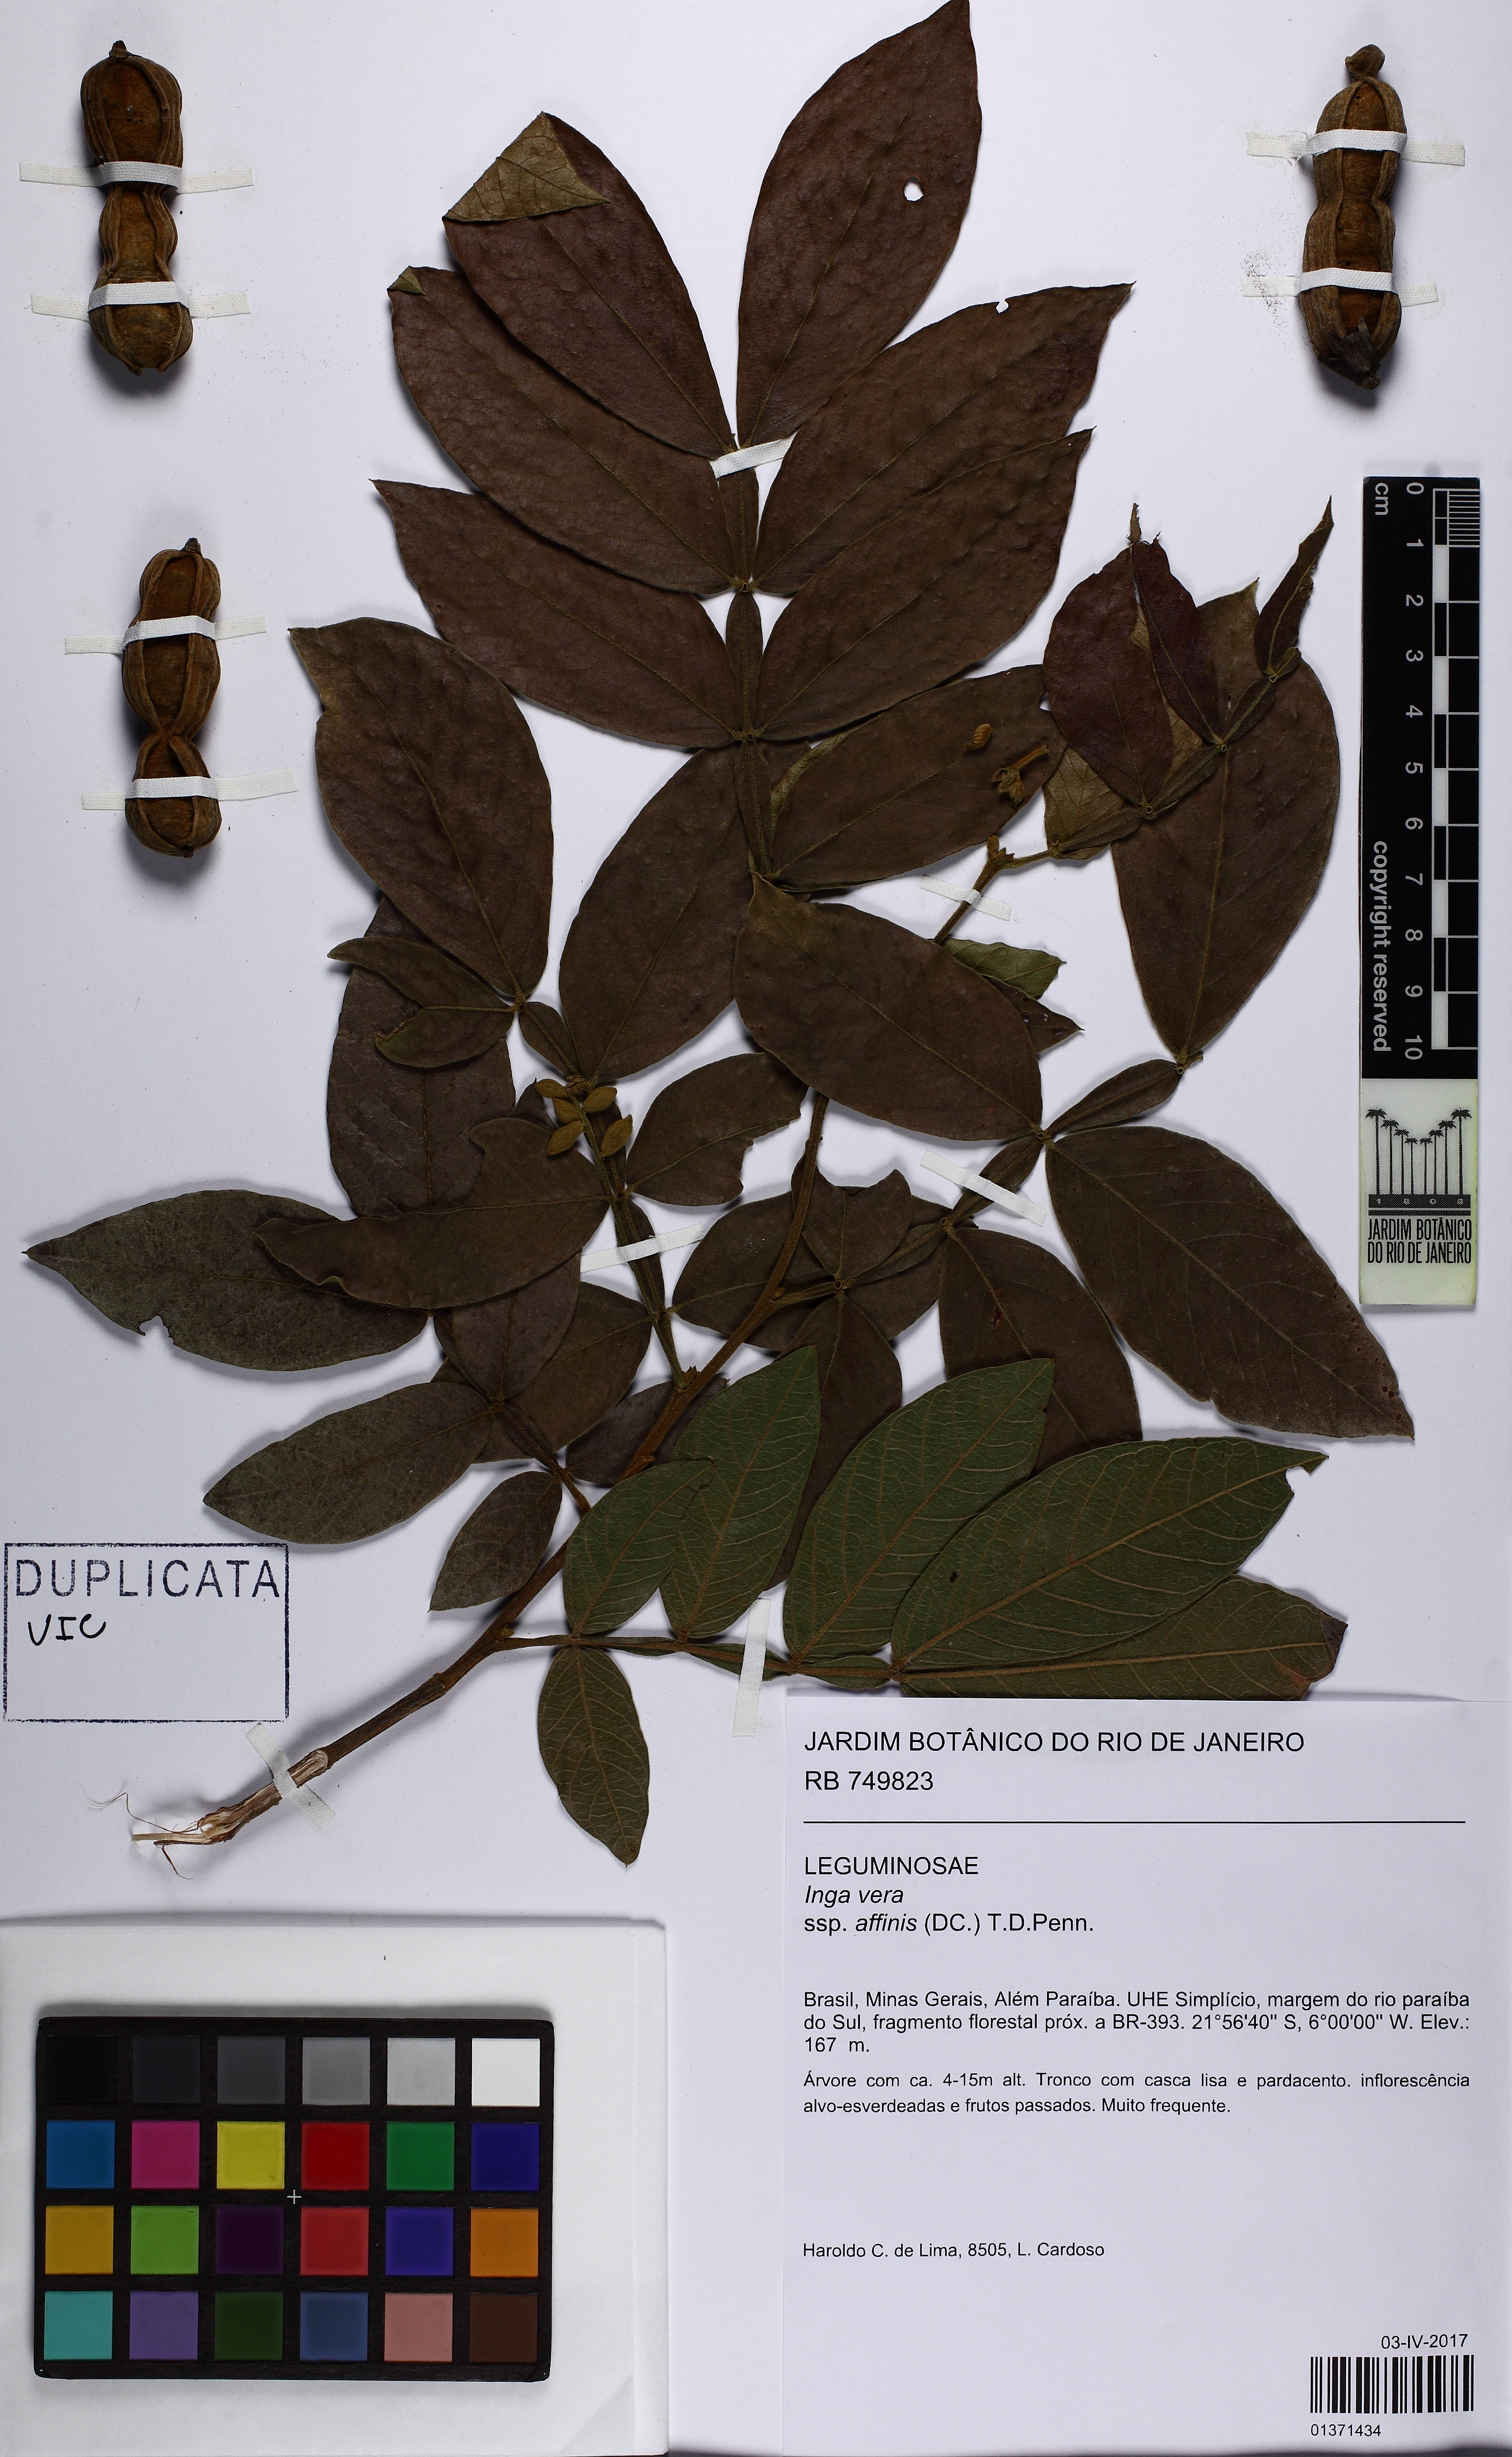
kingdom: Plantae
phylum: Tracheophyta
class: Magnoliopsida
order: Fabales
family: Fabaceae
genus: Inga
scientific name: Inga affinis
